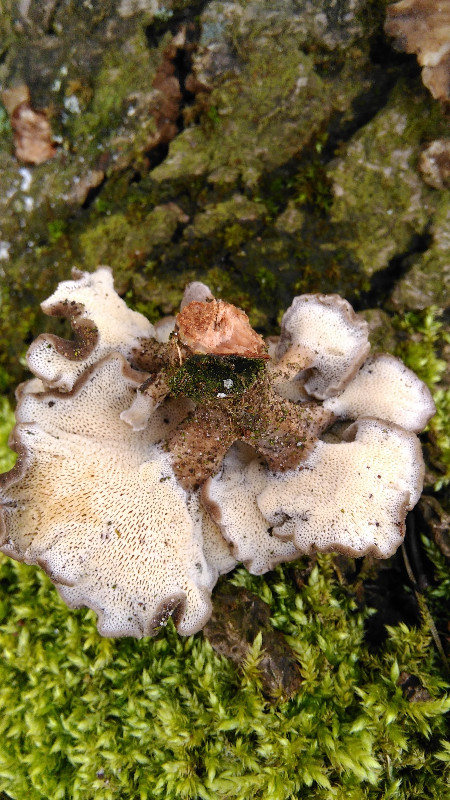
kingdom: Fungi
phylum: Basidiomycota
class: Agaricomycetes
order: Polyporales
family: Polyporaceae
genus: Lentinus
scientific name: Lentinus brumalis
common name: vinter-stilkporesvamp
